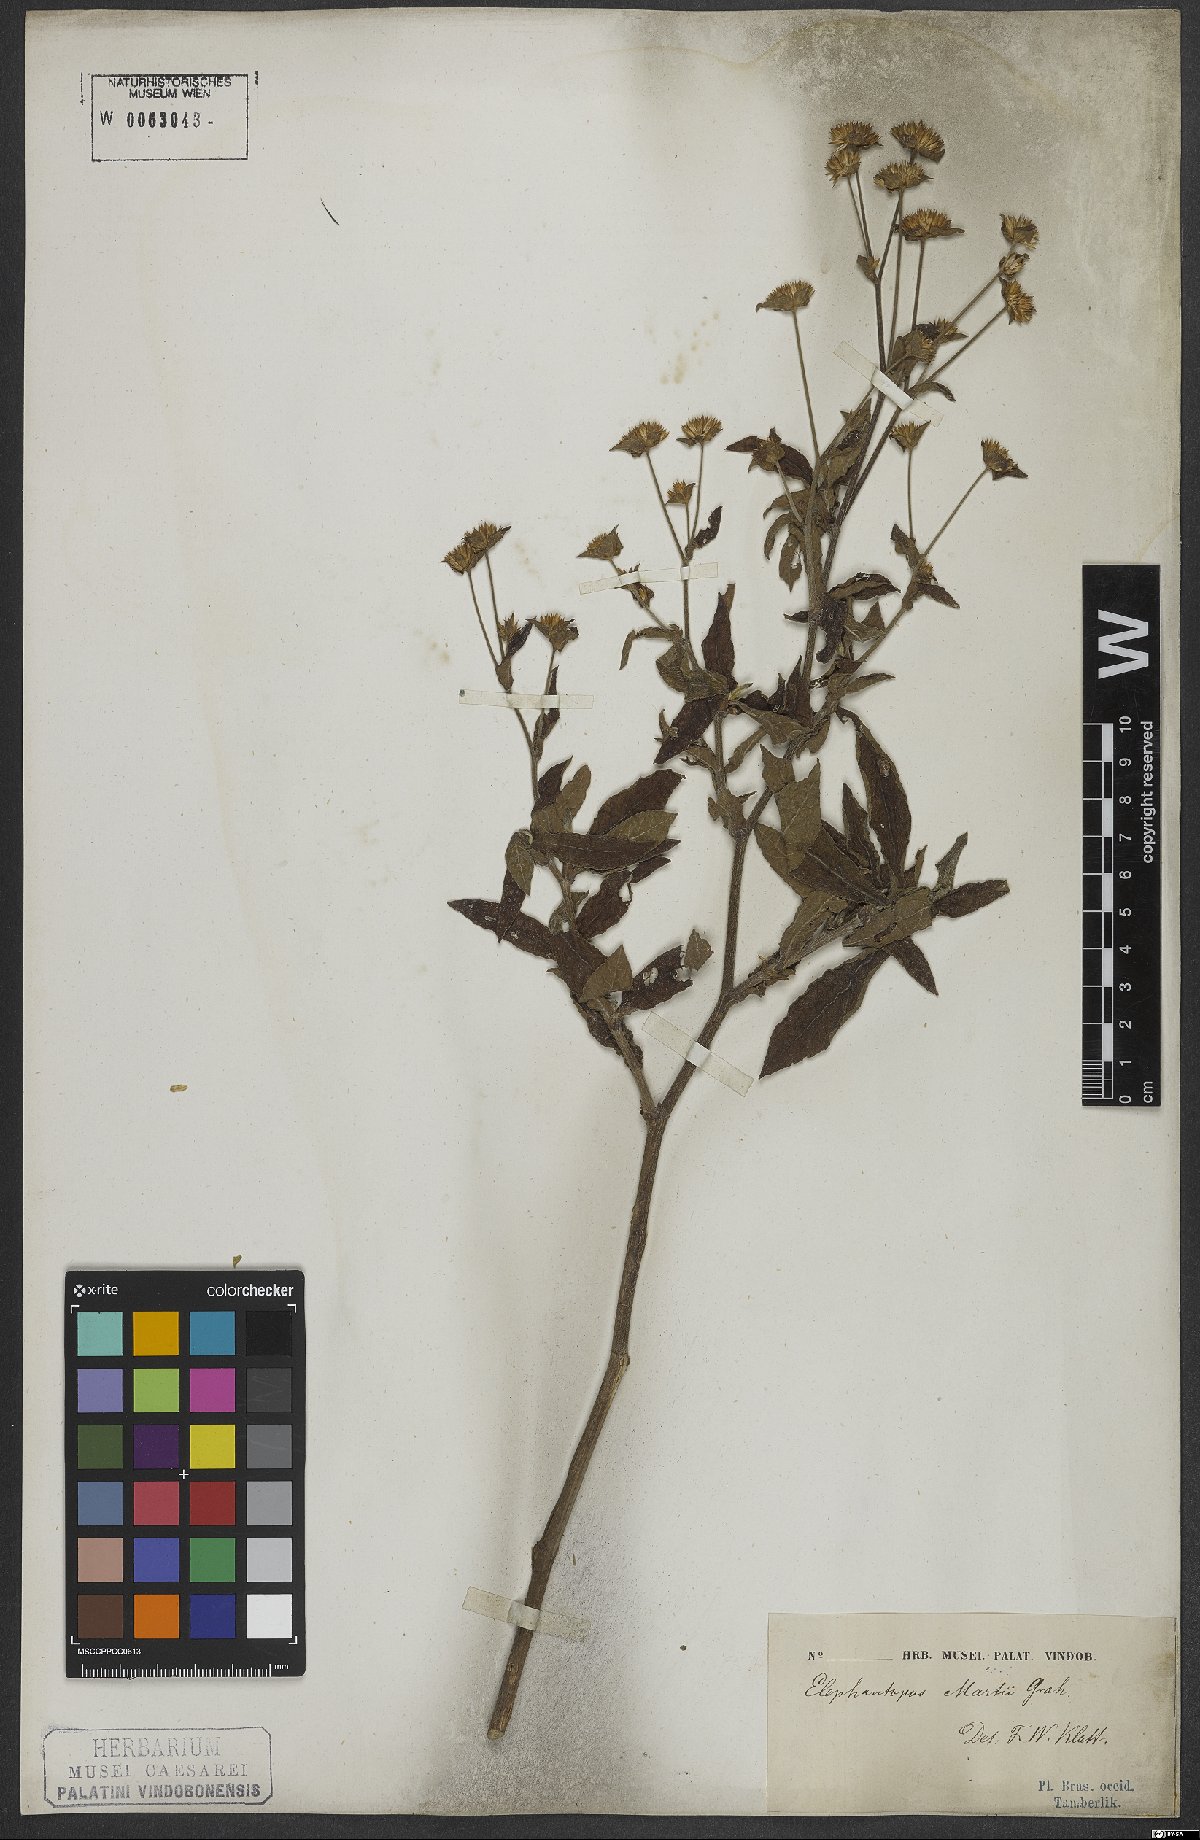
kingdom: Plantae
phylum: Tracheophyta
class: Magnoliopsida
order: Asterales
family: Asteraceae
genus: Elephantopus
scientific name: Elephantopus mollis
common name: Soft elephantsfoot
